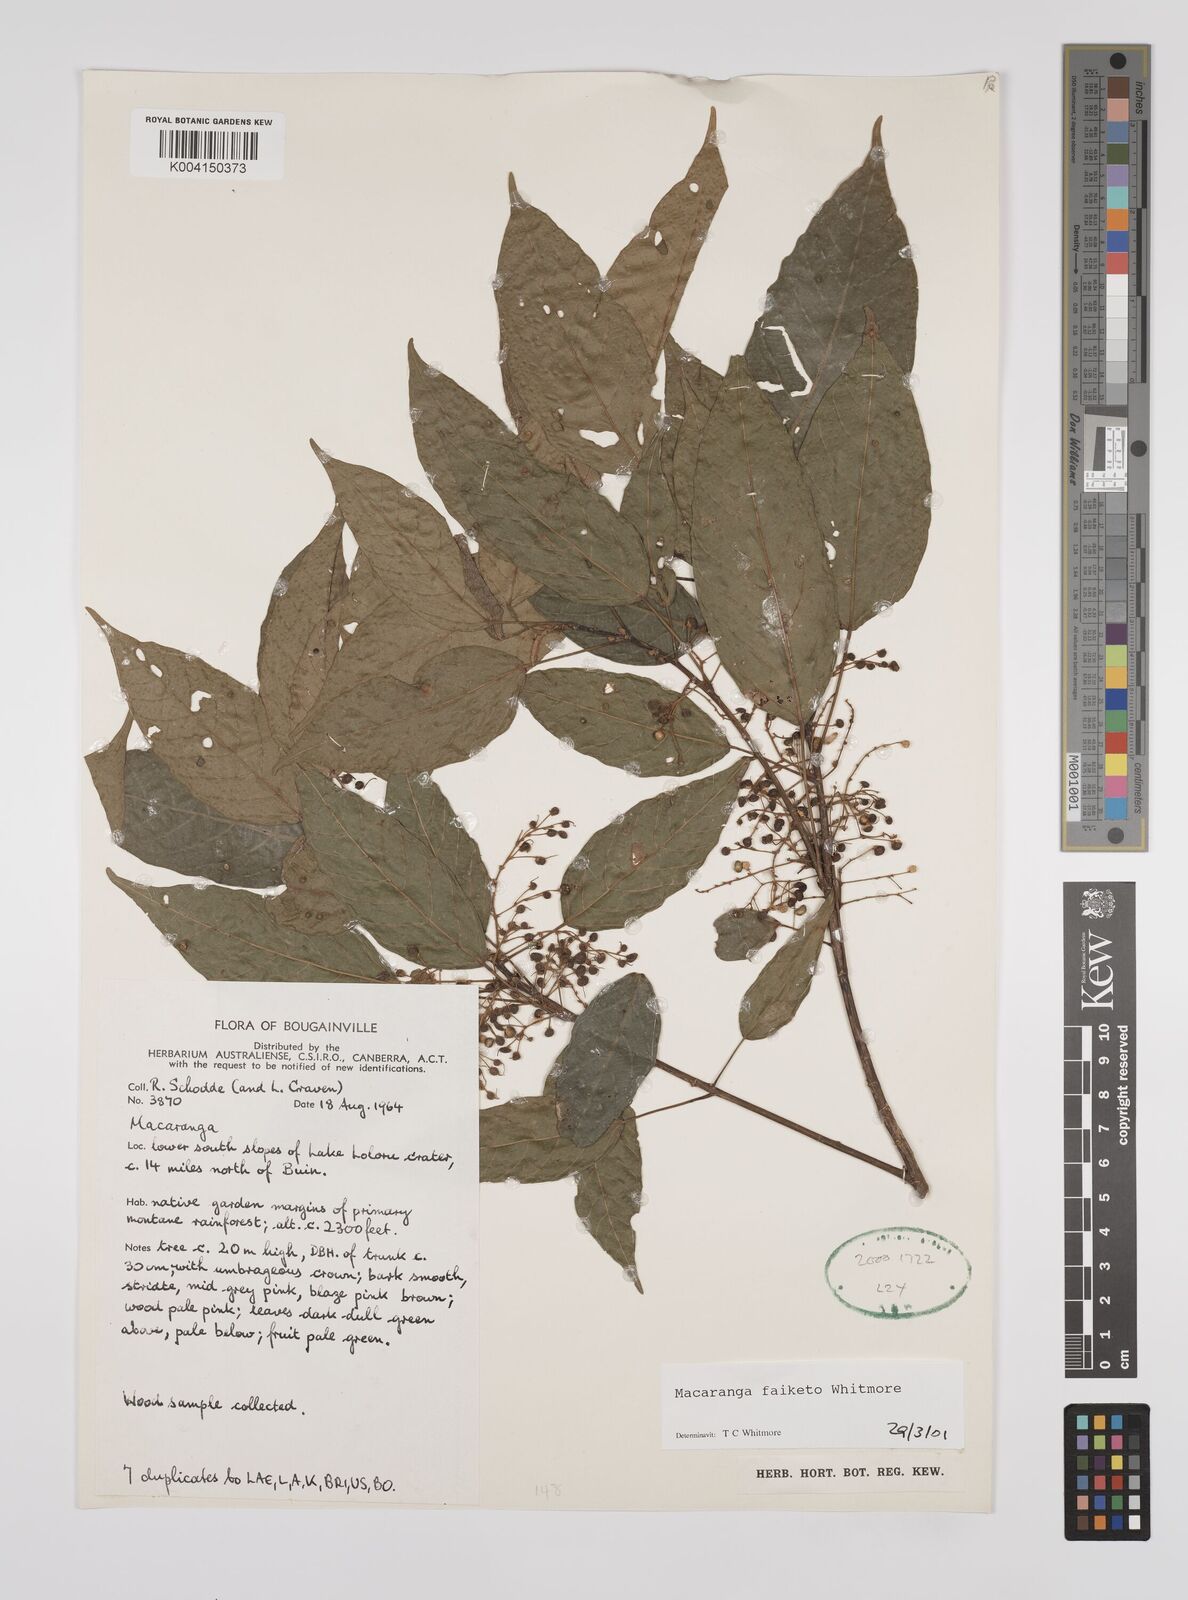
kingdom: Plantae
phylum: Tracheophyta
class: Magnoliopsida
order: Malpighiales
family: Euphorbiaceae
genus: Macaranga
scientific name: Macaranga faiketo
